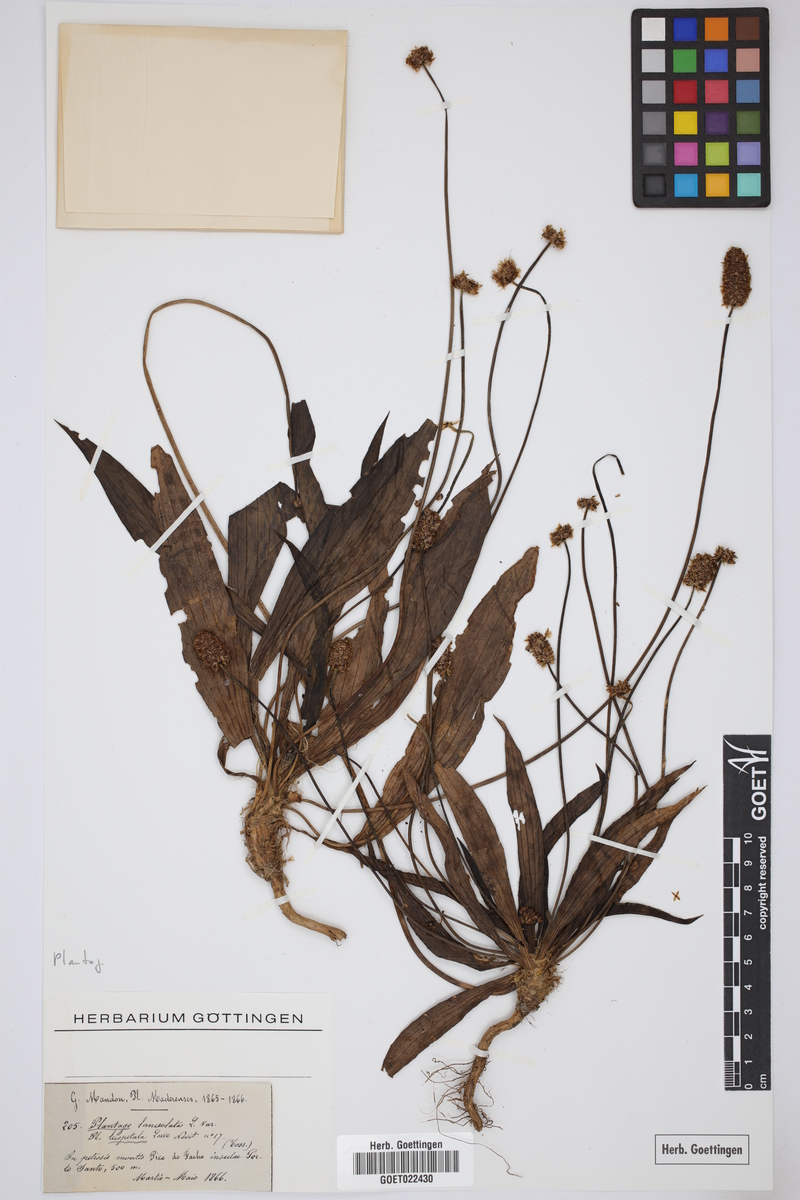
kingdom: Plantae
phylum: Tracheophyta
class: Magnoliopsida
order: Lamiales
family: Plantaginaceae
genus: Plantago
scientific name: Plantago argentea
